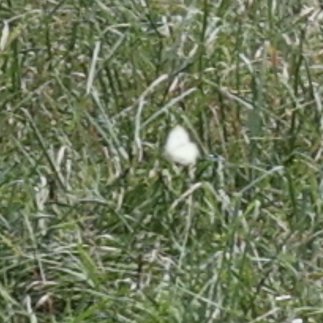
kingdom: Animalia
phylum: Arthropoda
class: Insecta
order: Lepidoptera
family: Pieridae
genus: Pieris
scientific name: Pieris rapae
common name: Cabbage White
